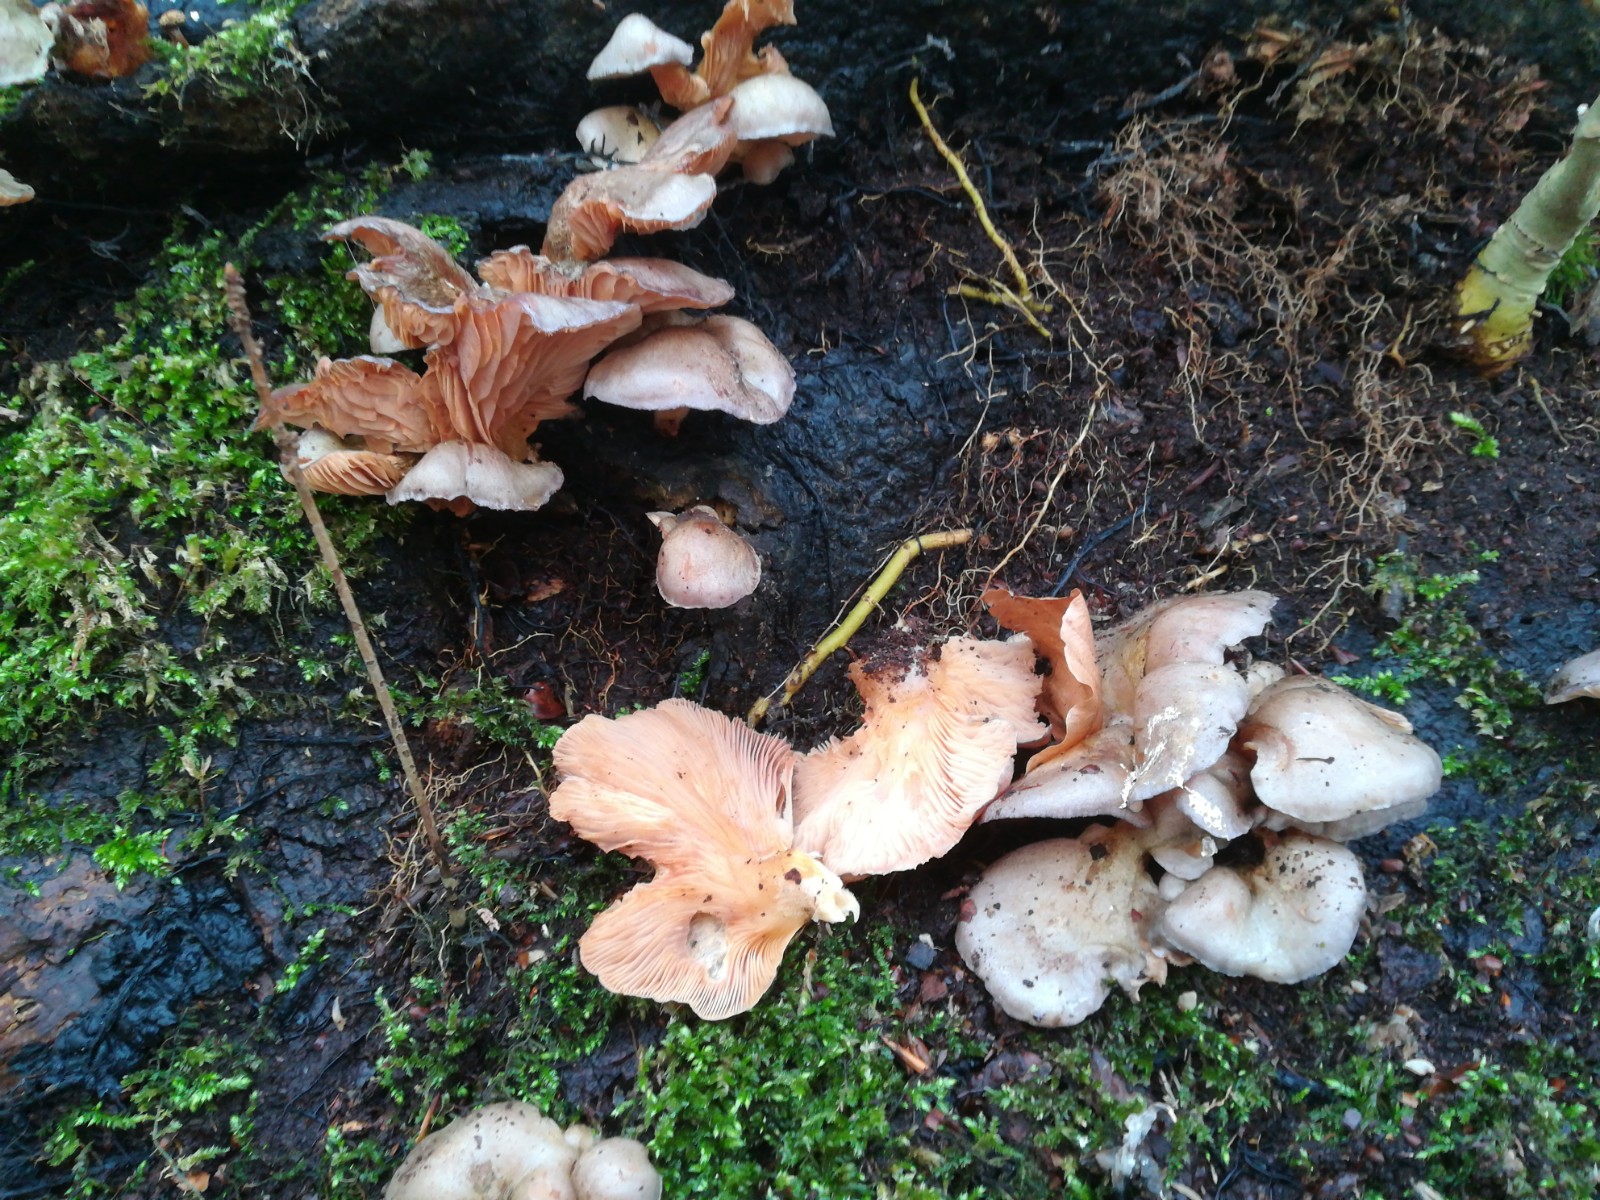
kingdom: Fungi
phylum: Basidiomycota
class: Agaricomycetes
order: Agaricales
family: Sarcomyxaceae
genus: Sarcomyxa
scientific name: Sarcomyxa serotina
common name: gummihat
